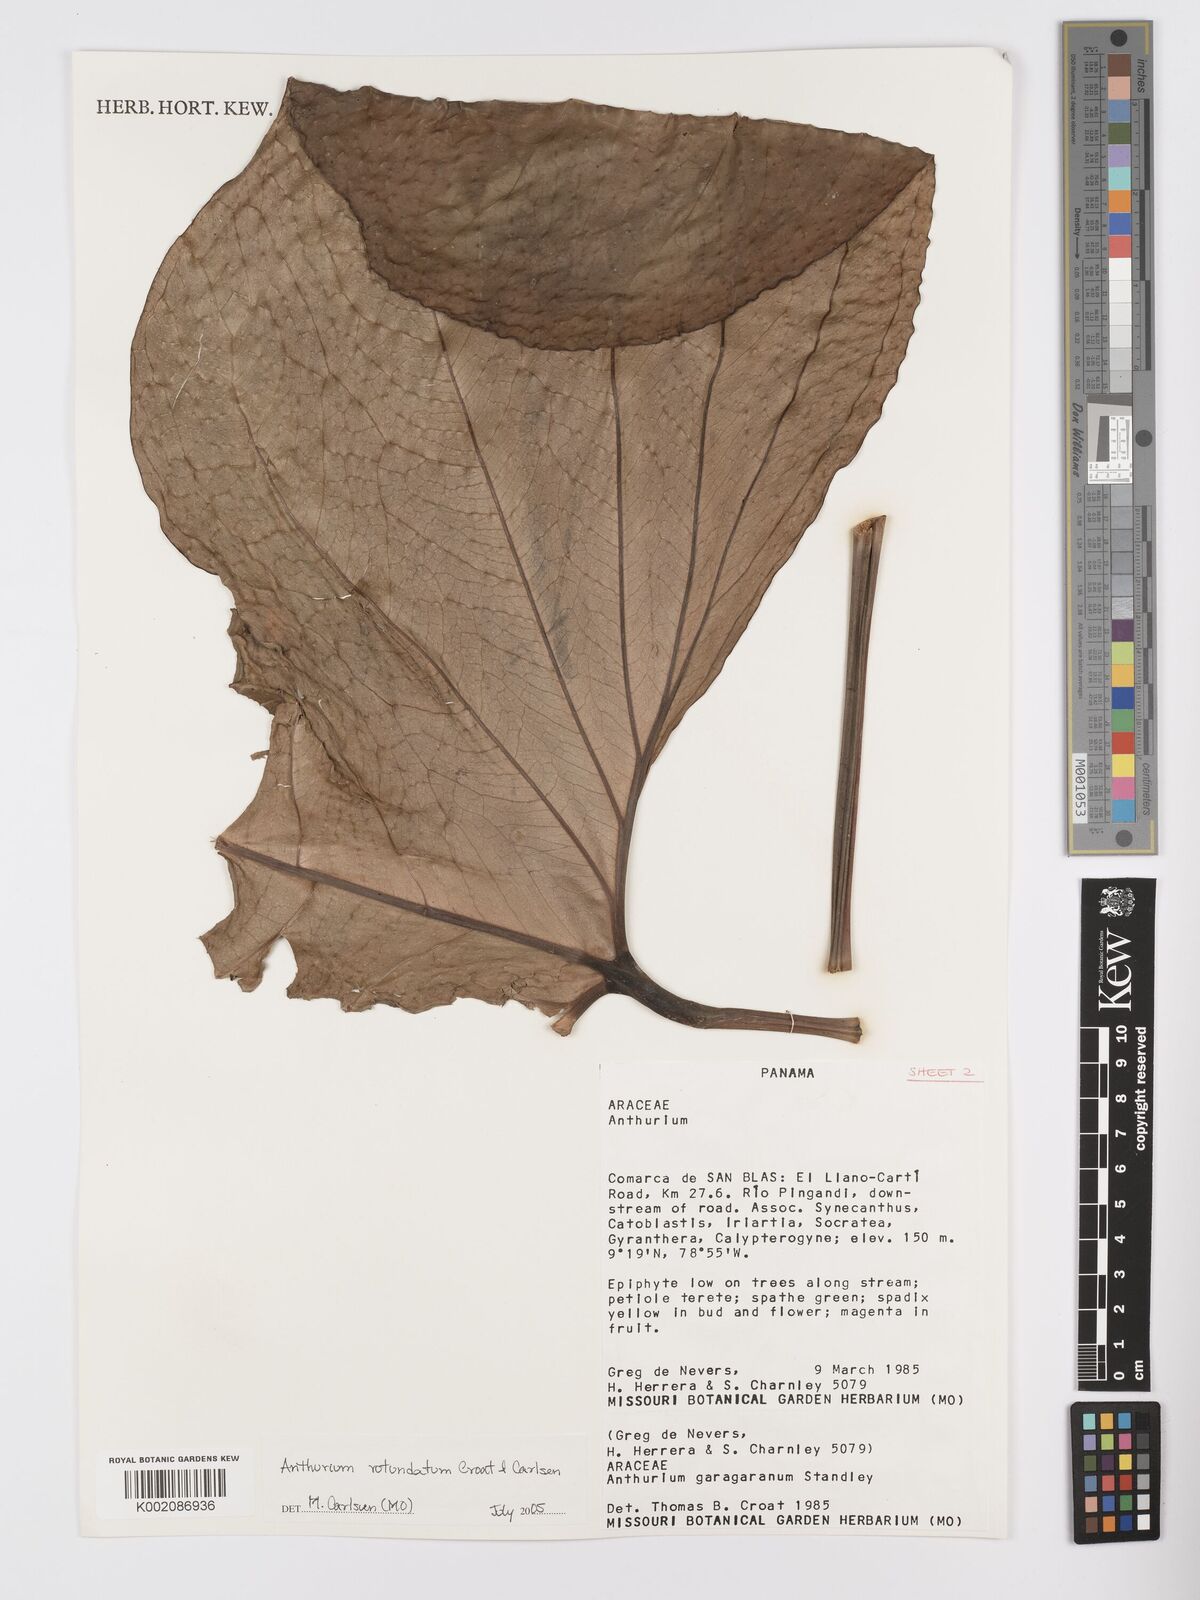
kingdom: Plantae
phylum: Tracheophyta
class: Liliopsida
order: Alismatales
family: Araceae
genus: Anthurium
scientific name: Anthurium rotundatum
